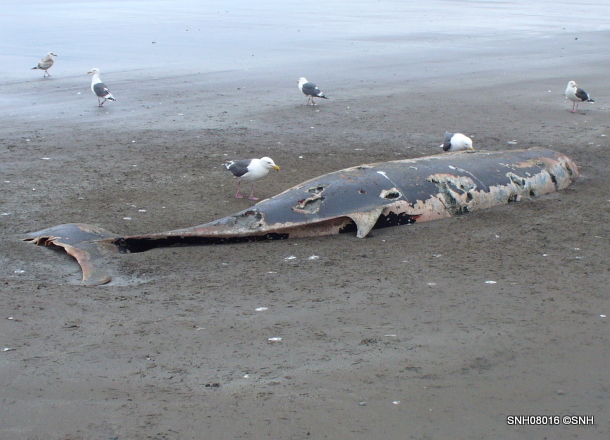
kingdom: Animalia
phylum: Chordata
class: Mammalia
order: Cetacea
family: Hyperoodontidae
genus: Ziphius
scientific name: Ziphius cavirostris
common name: Cuvier's beaked whale
